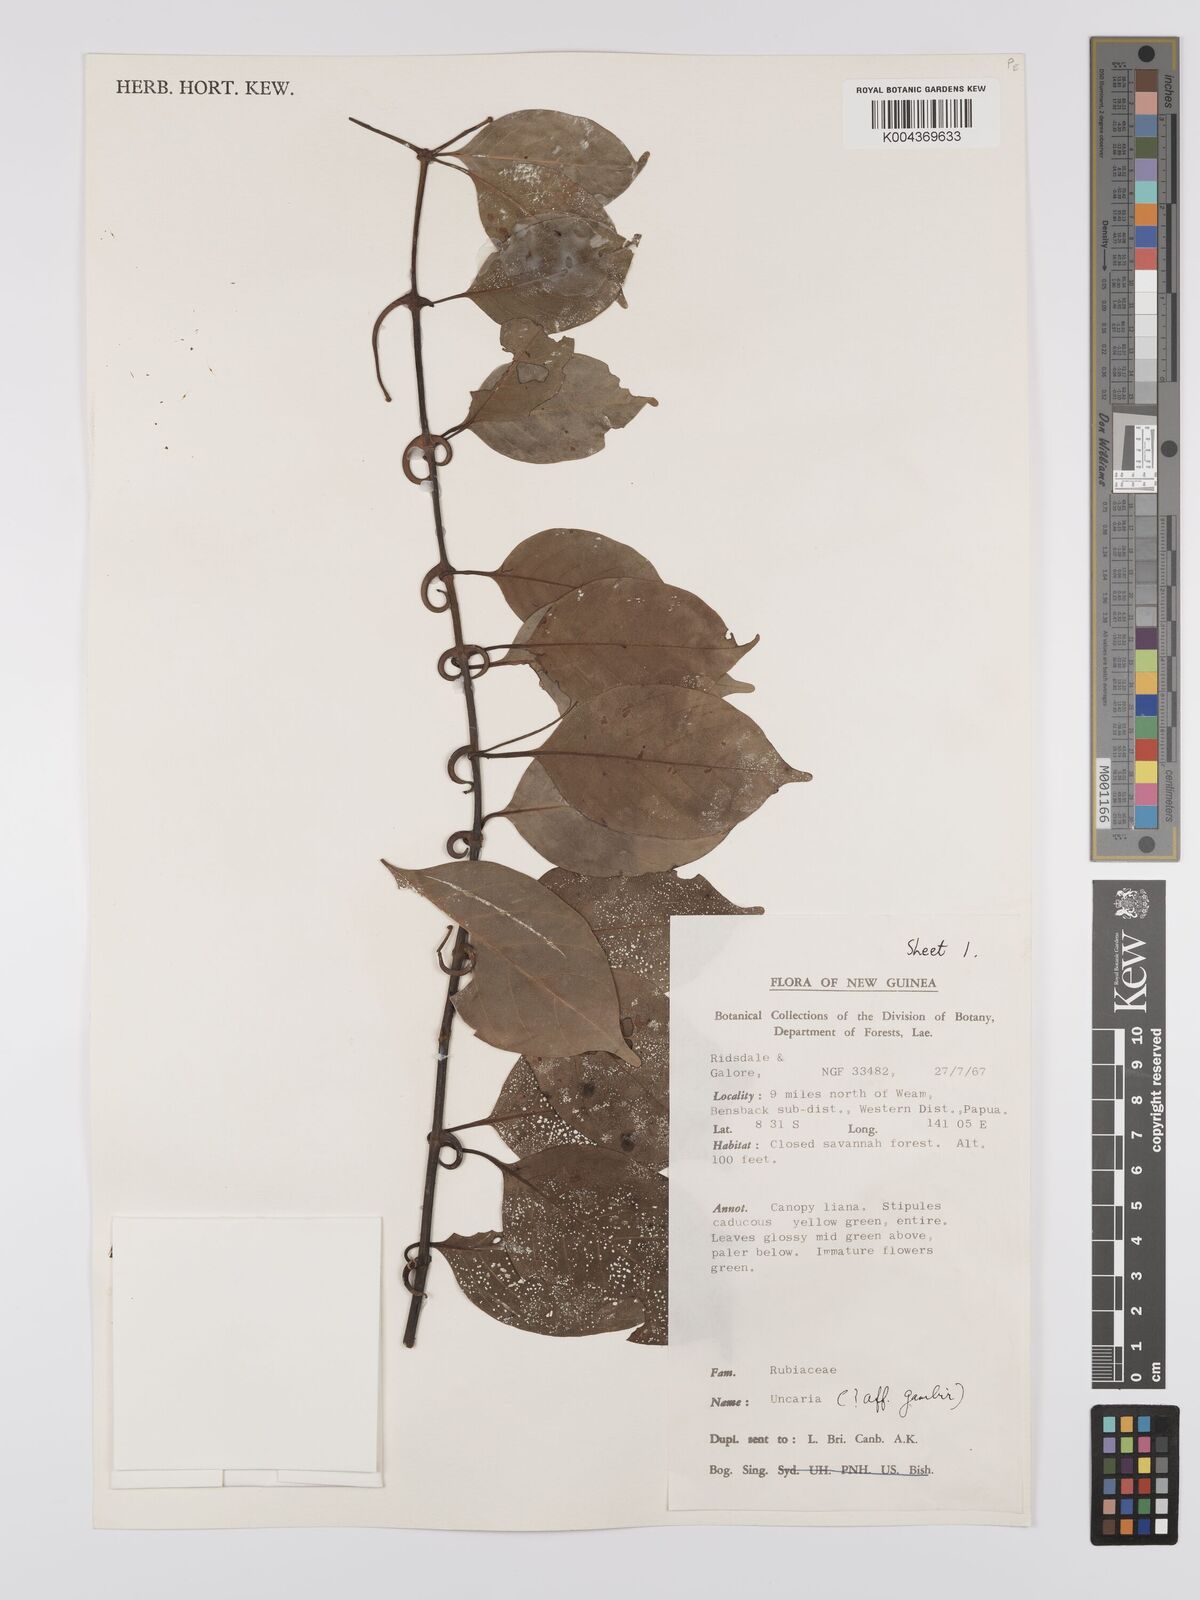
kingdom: Plantae
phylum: Tracheophyta
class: Magnoliopsida
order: Gentianales
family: Rubiaceae
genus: Uncaria
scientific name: Uncaria callophylla
